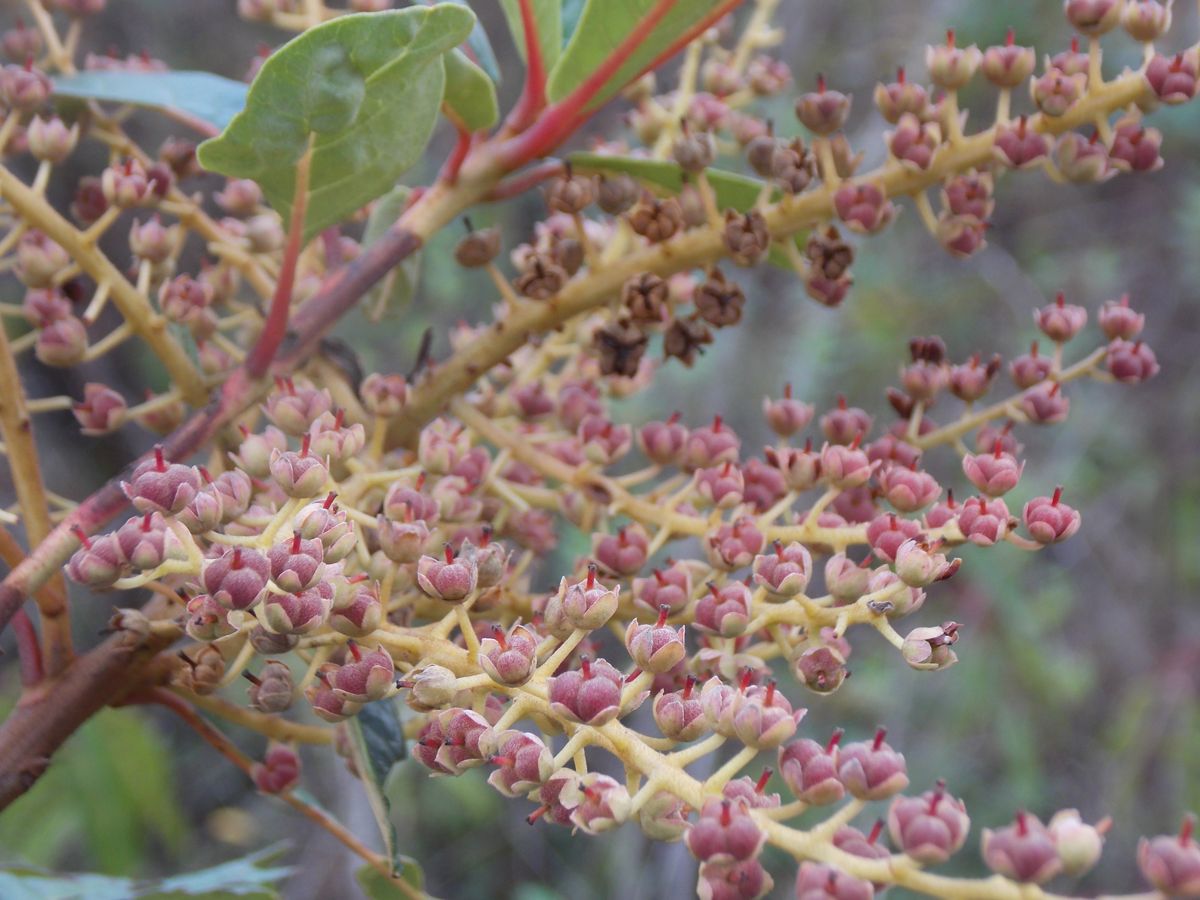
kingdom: Plantae
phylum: Tracheophyta
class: Magnoliopsida
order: Ericales
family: Clethraceae
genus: Clethra
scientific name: Clethra lanata
